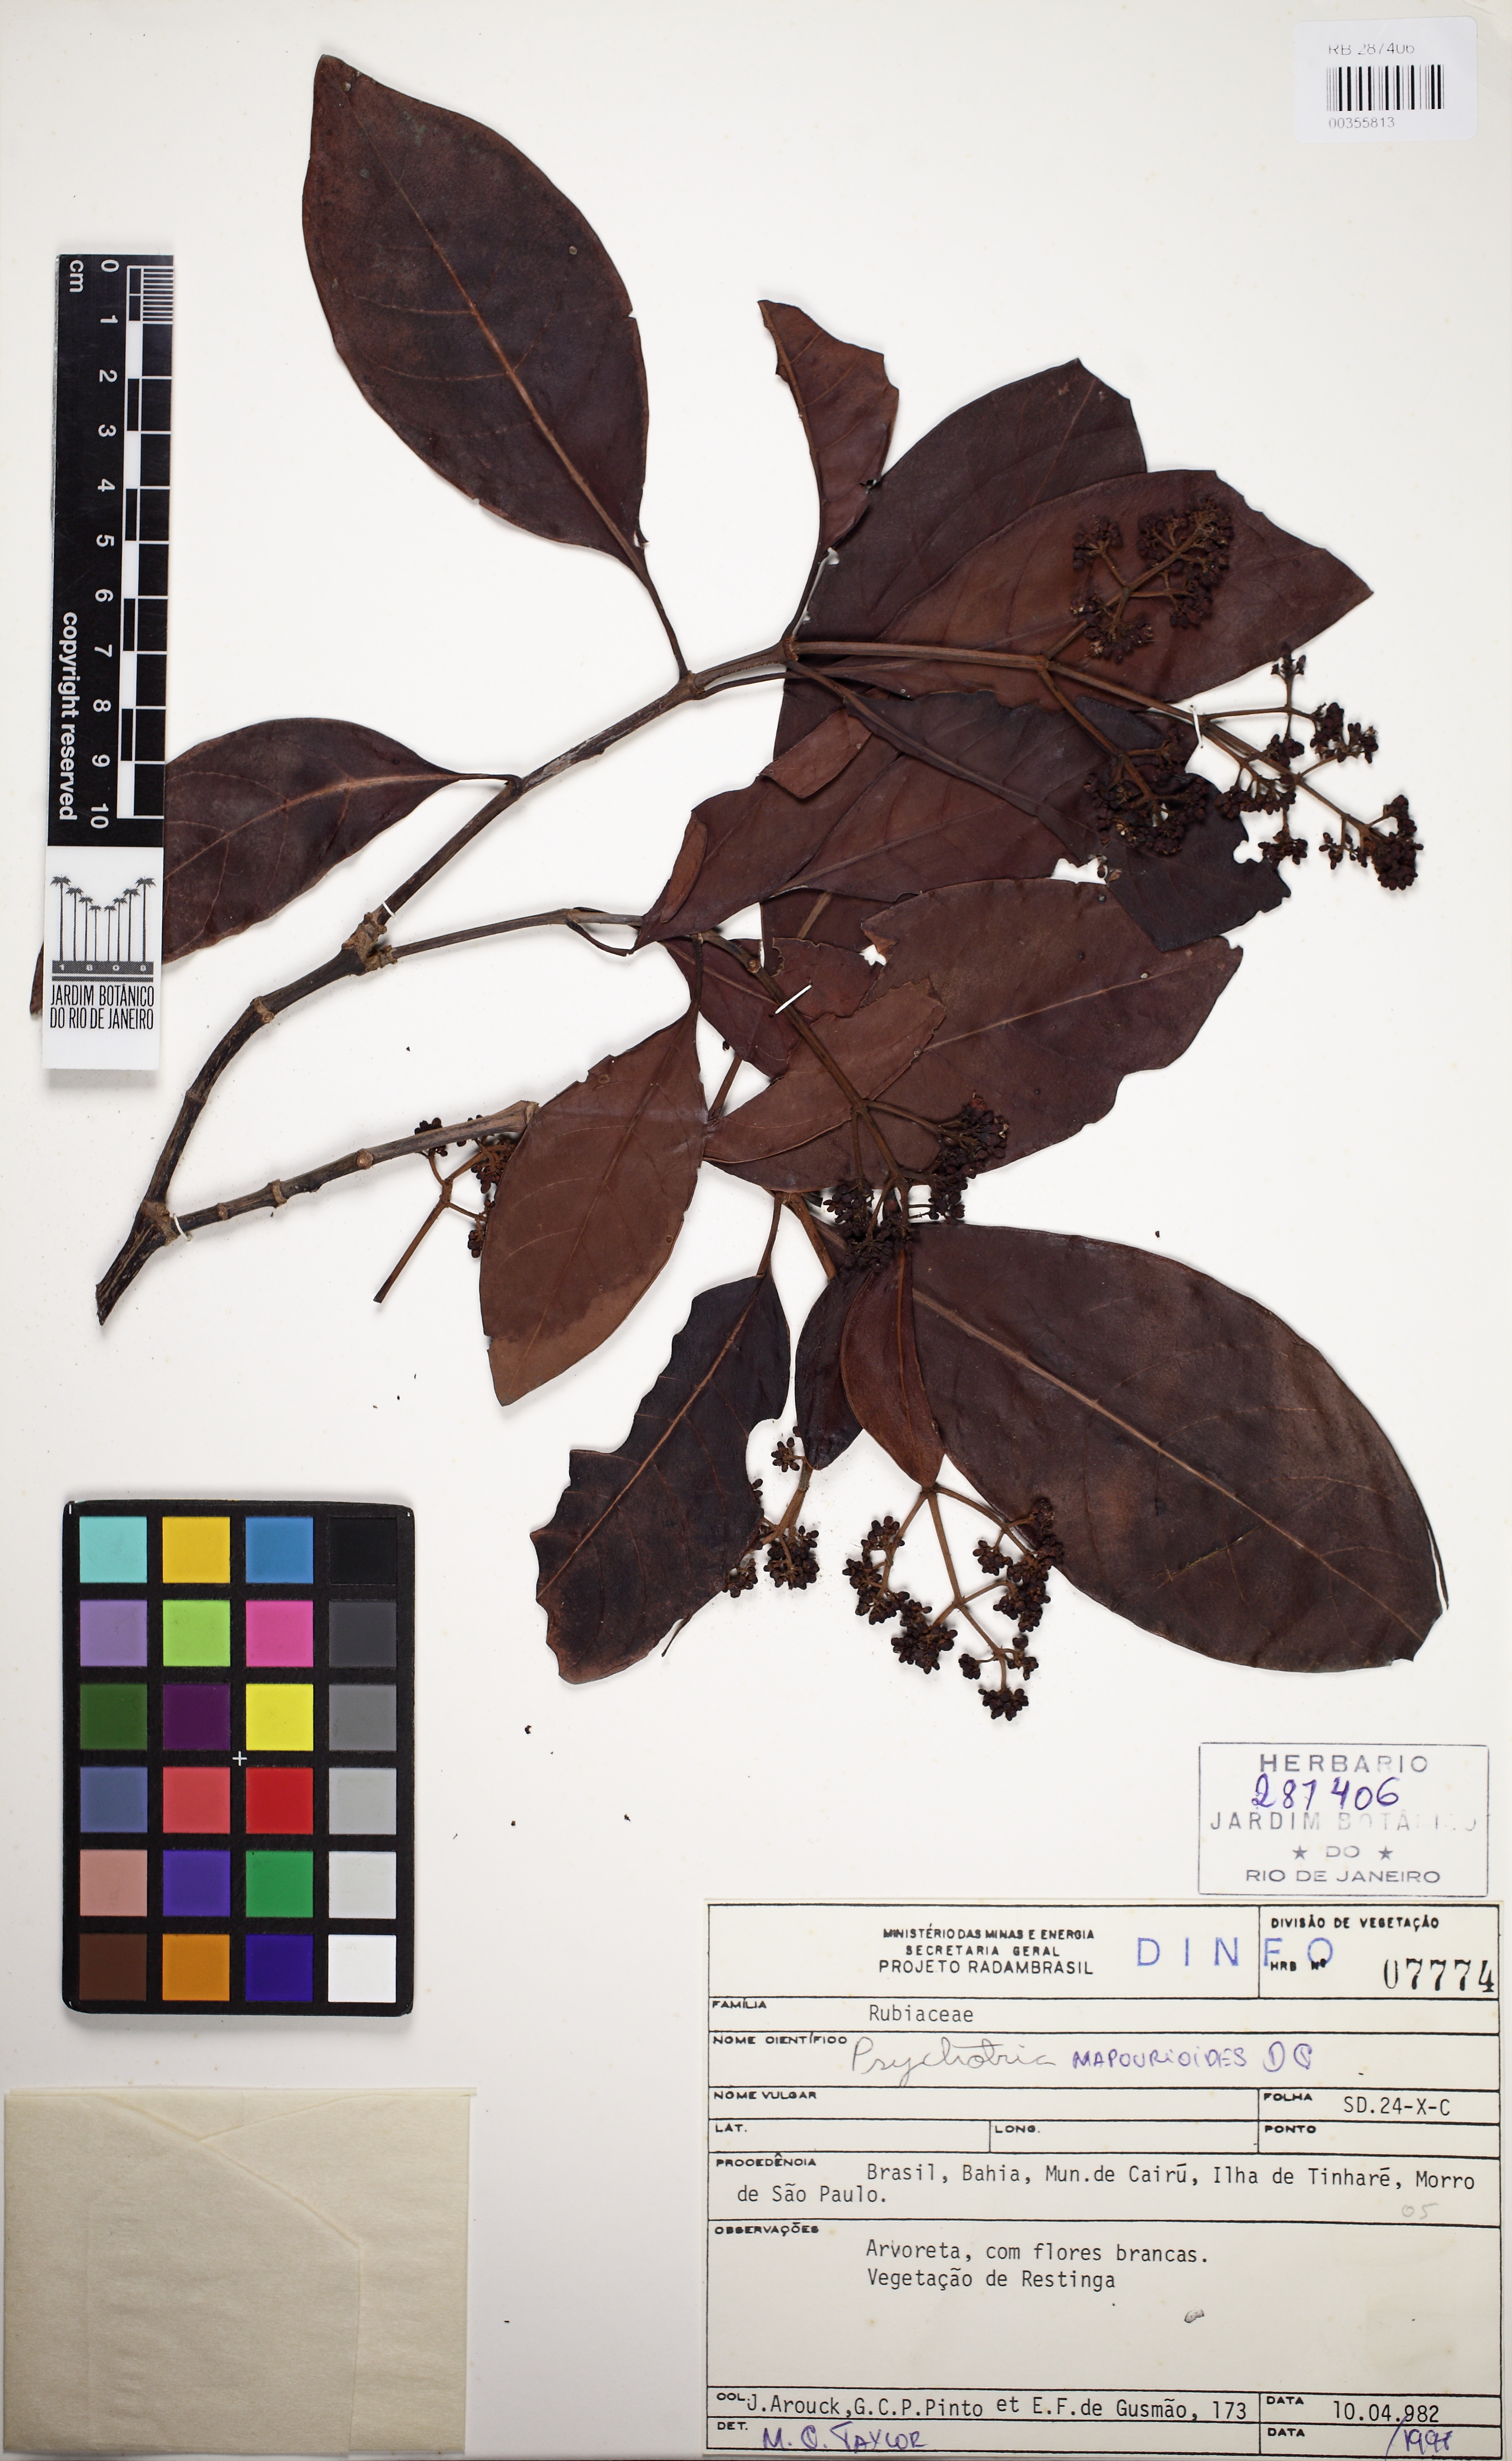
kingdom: Plantae
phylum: Tracheophyta
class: Magnoliopsida
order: Gentianales
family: Rubiaceae
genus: Psychotria
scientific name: Psychotria pedunculosa
